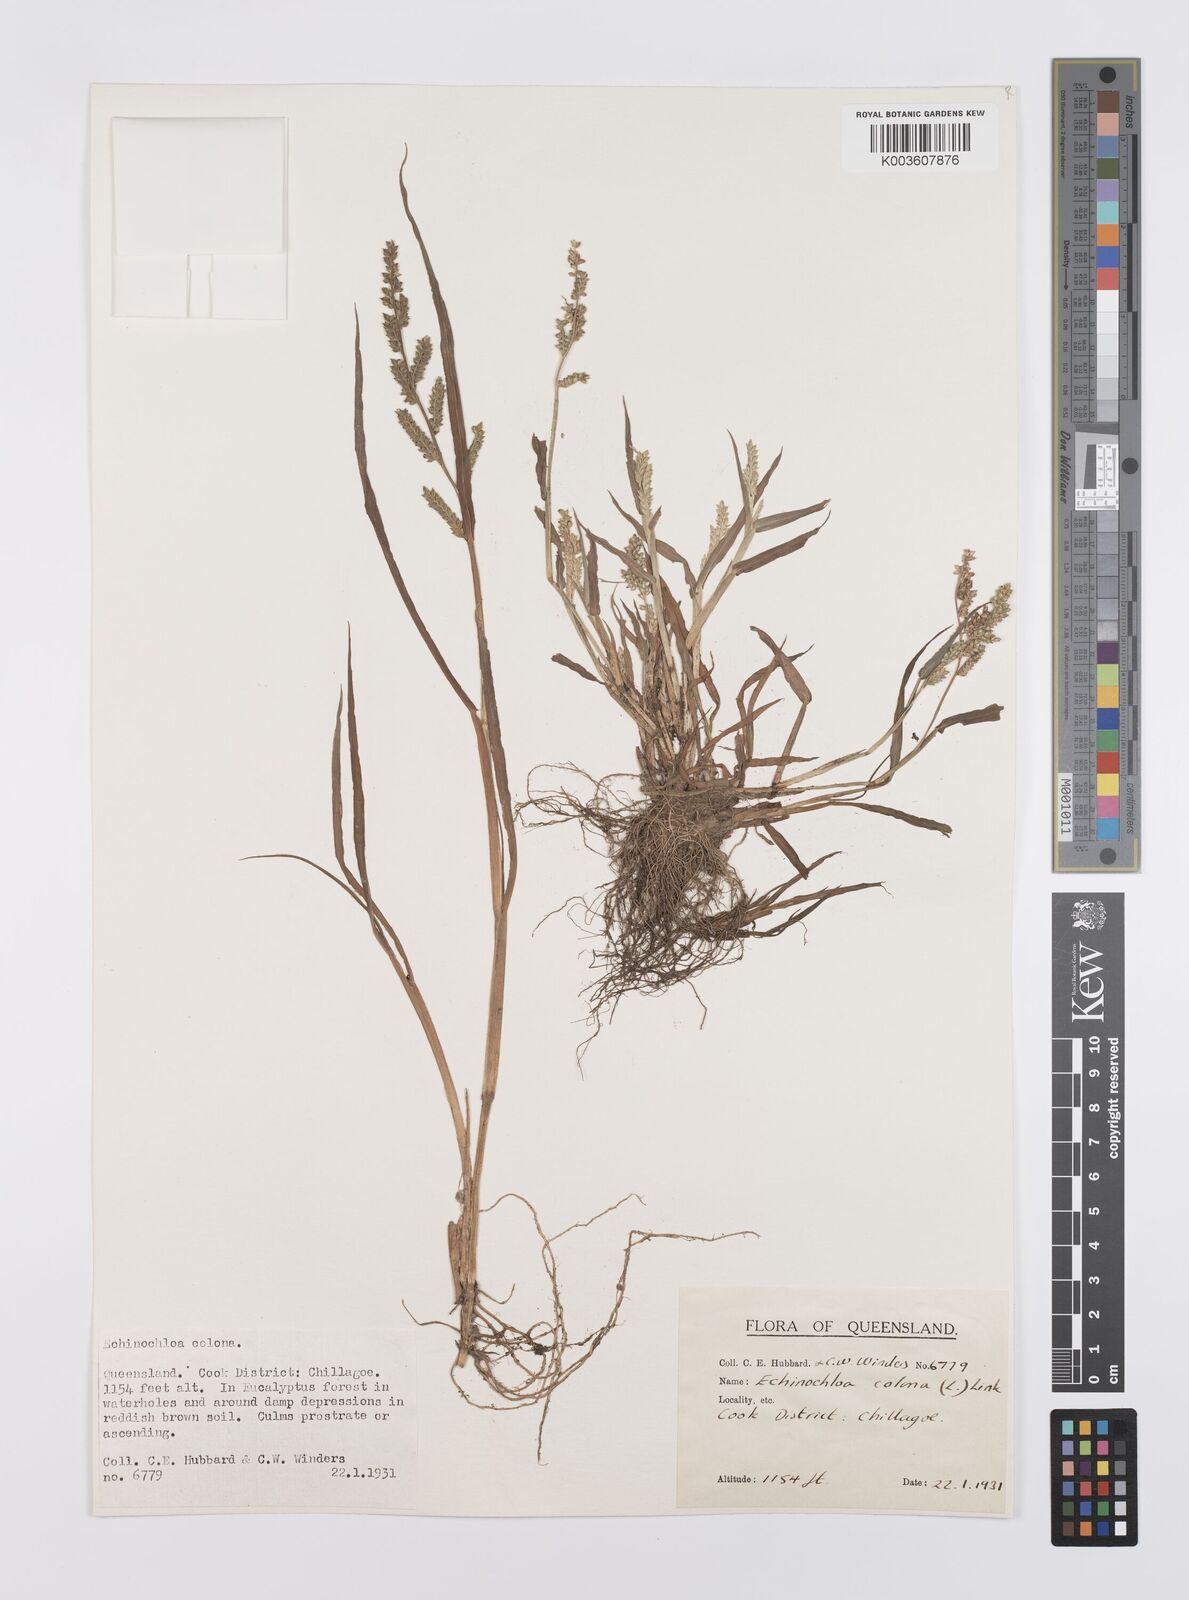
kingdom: Plantae
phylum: Tracheophyta
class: Liliopsida
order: Poales
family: Poaceae
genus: Echinochloa
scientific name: Echinochloa colonum
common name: Jungle rice
